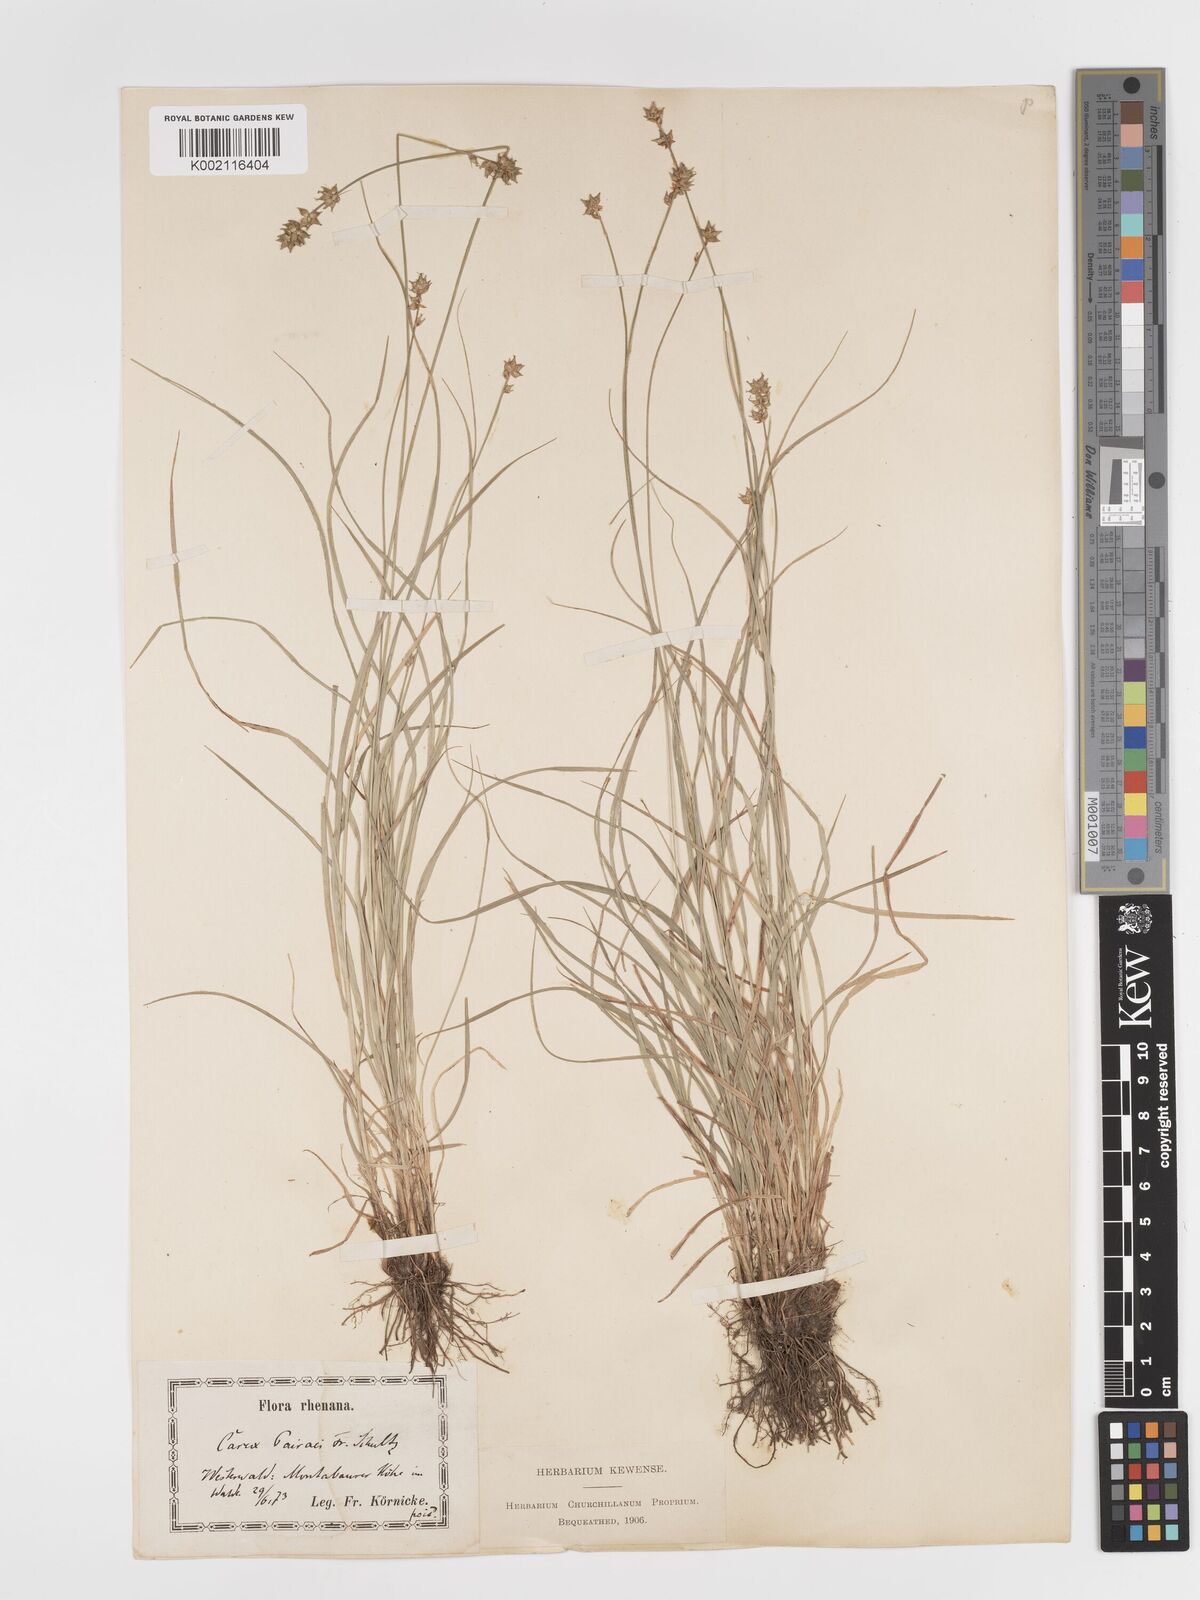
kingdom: Plantae
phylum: Tracheophyta
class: Liliopsida
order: Poales
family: Cyperaceae
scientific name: Cyperaceae
